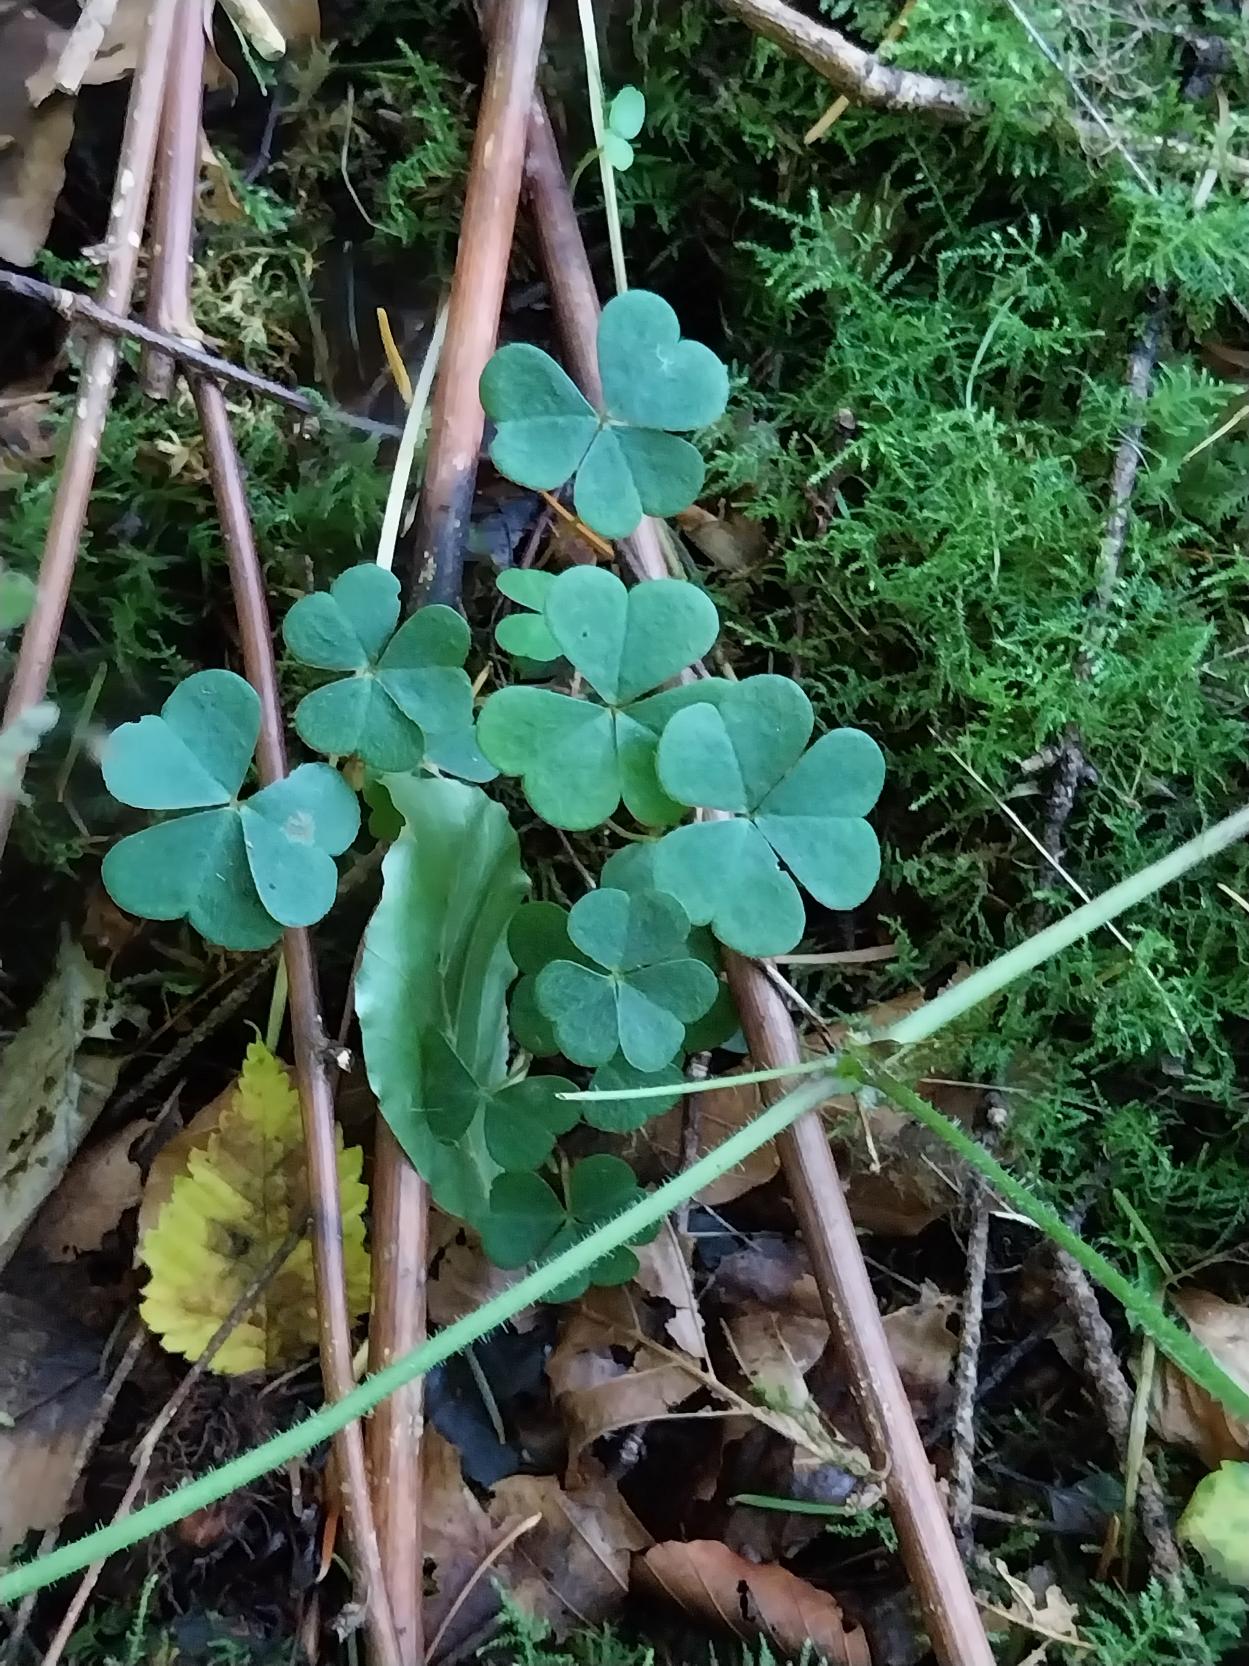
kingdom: Plantae
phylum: Tracheophyta
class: Magnoliopsida
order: Oxalidales
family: Oxalidaceae
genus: Oxalis
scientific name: Oxalis acetosella
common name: Skovsyre
